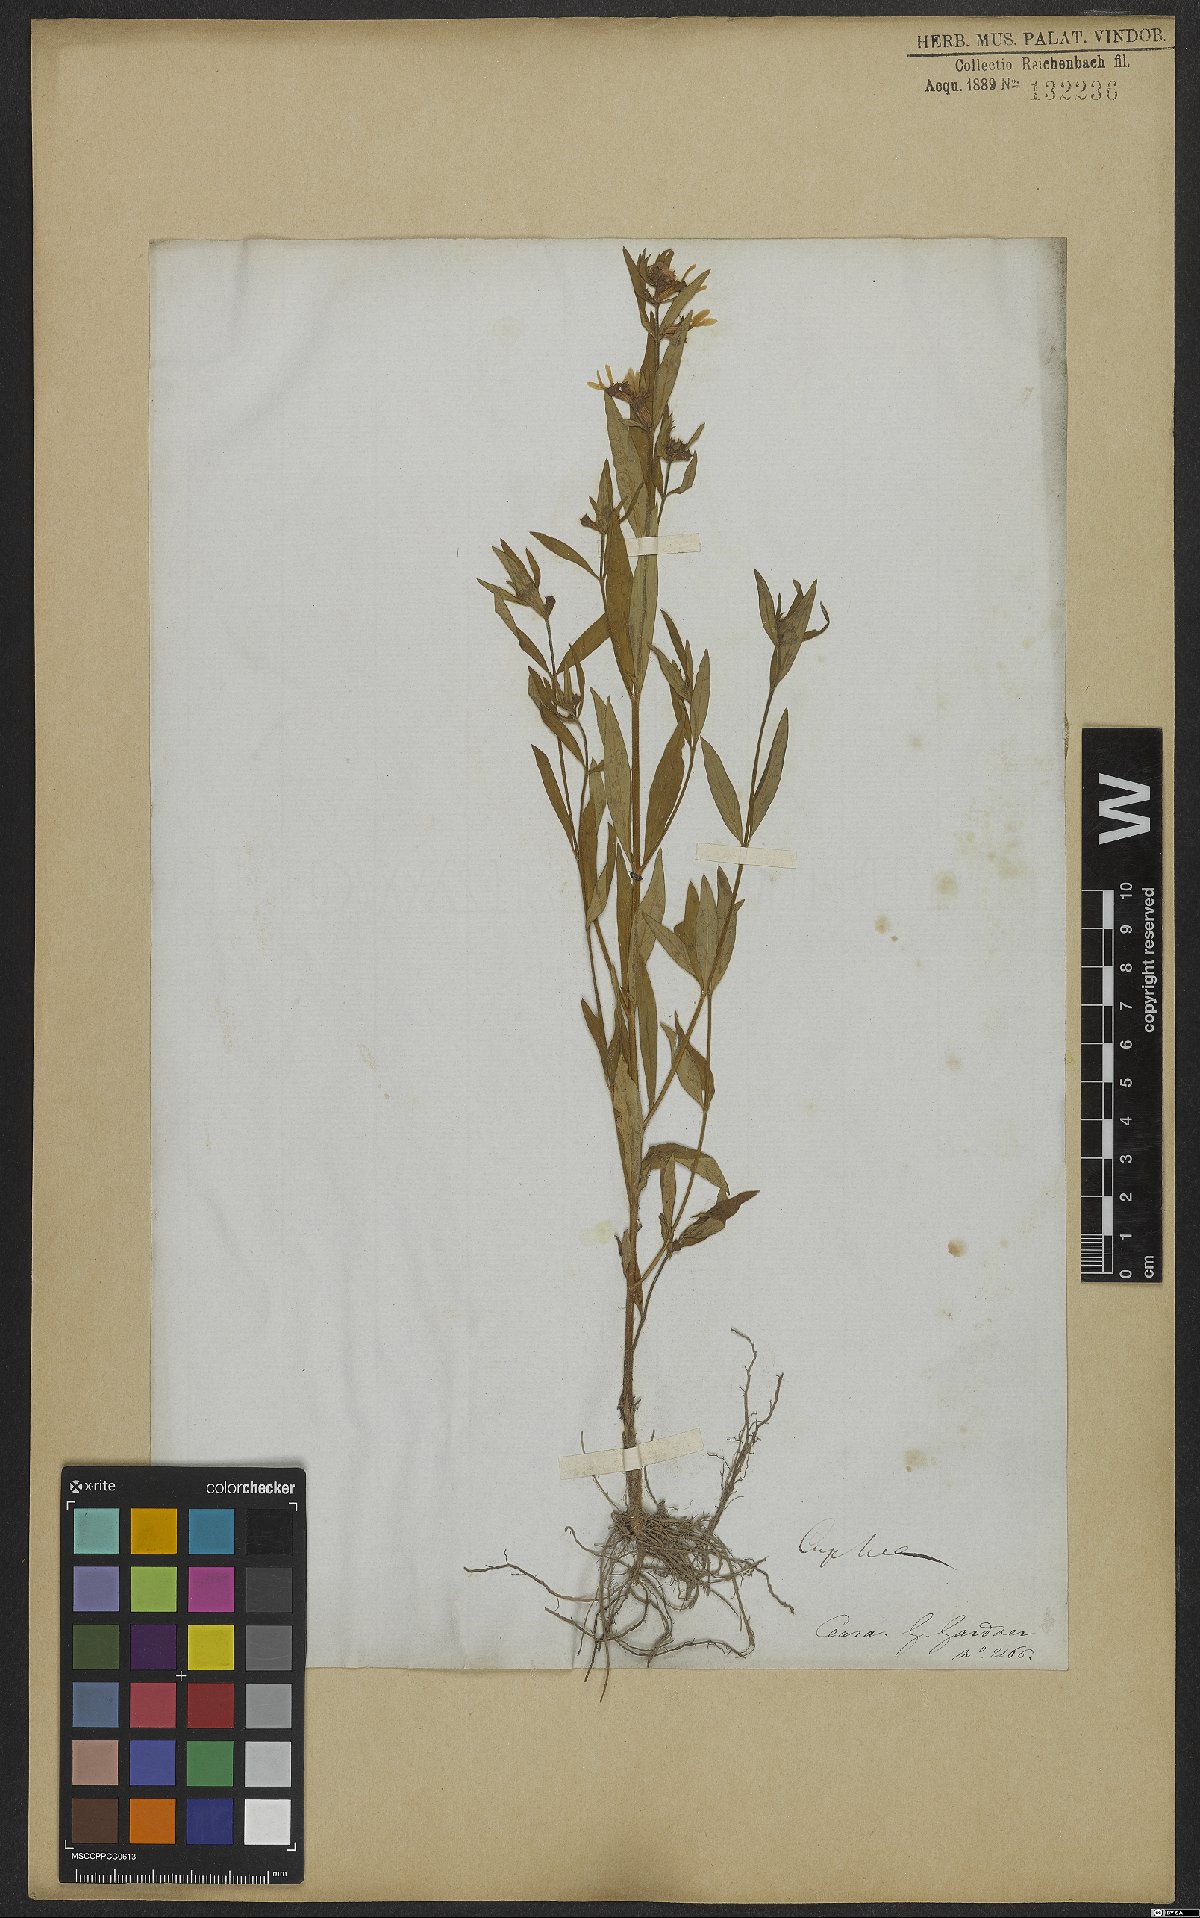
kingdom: Plantae
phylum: Tracheophyta
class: Magnoliopsida
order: Myrtales
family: Lythraceae
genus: Cuphea
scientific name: Cuphea campestris
